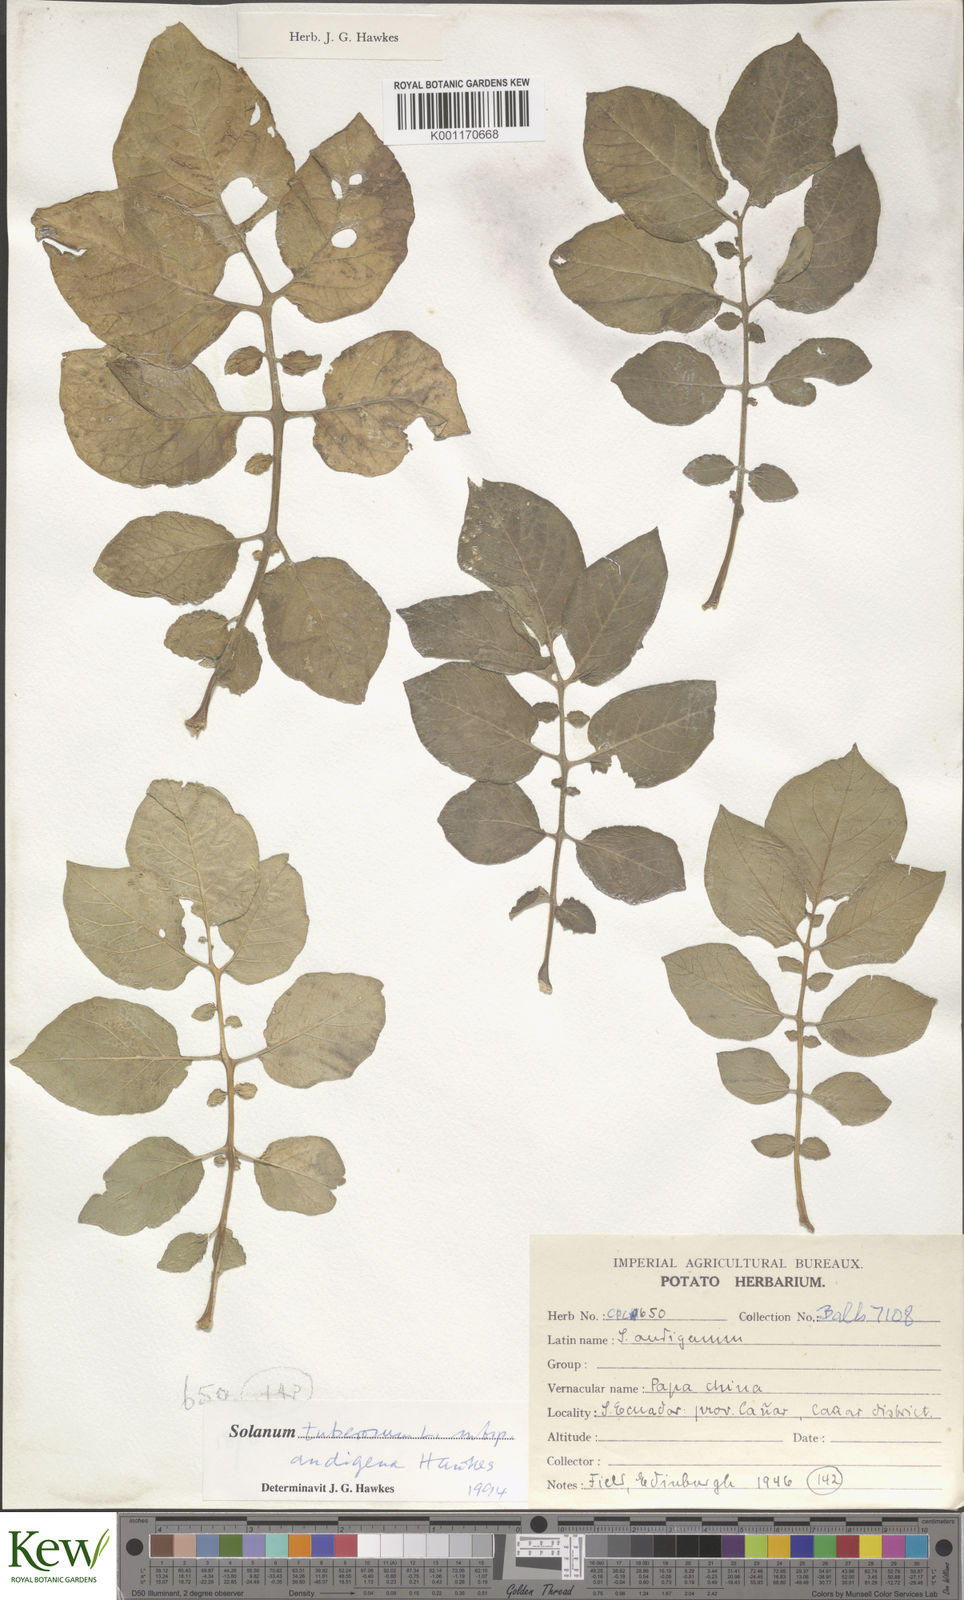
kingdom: Plantae
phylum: Tracheophyta
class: Magnoliopsida
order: Solanales
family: Solanaceae
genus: Solanum
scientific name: Solanum tuberosum
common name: Potato
